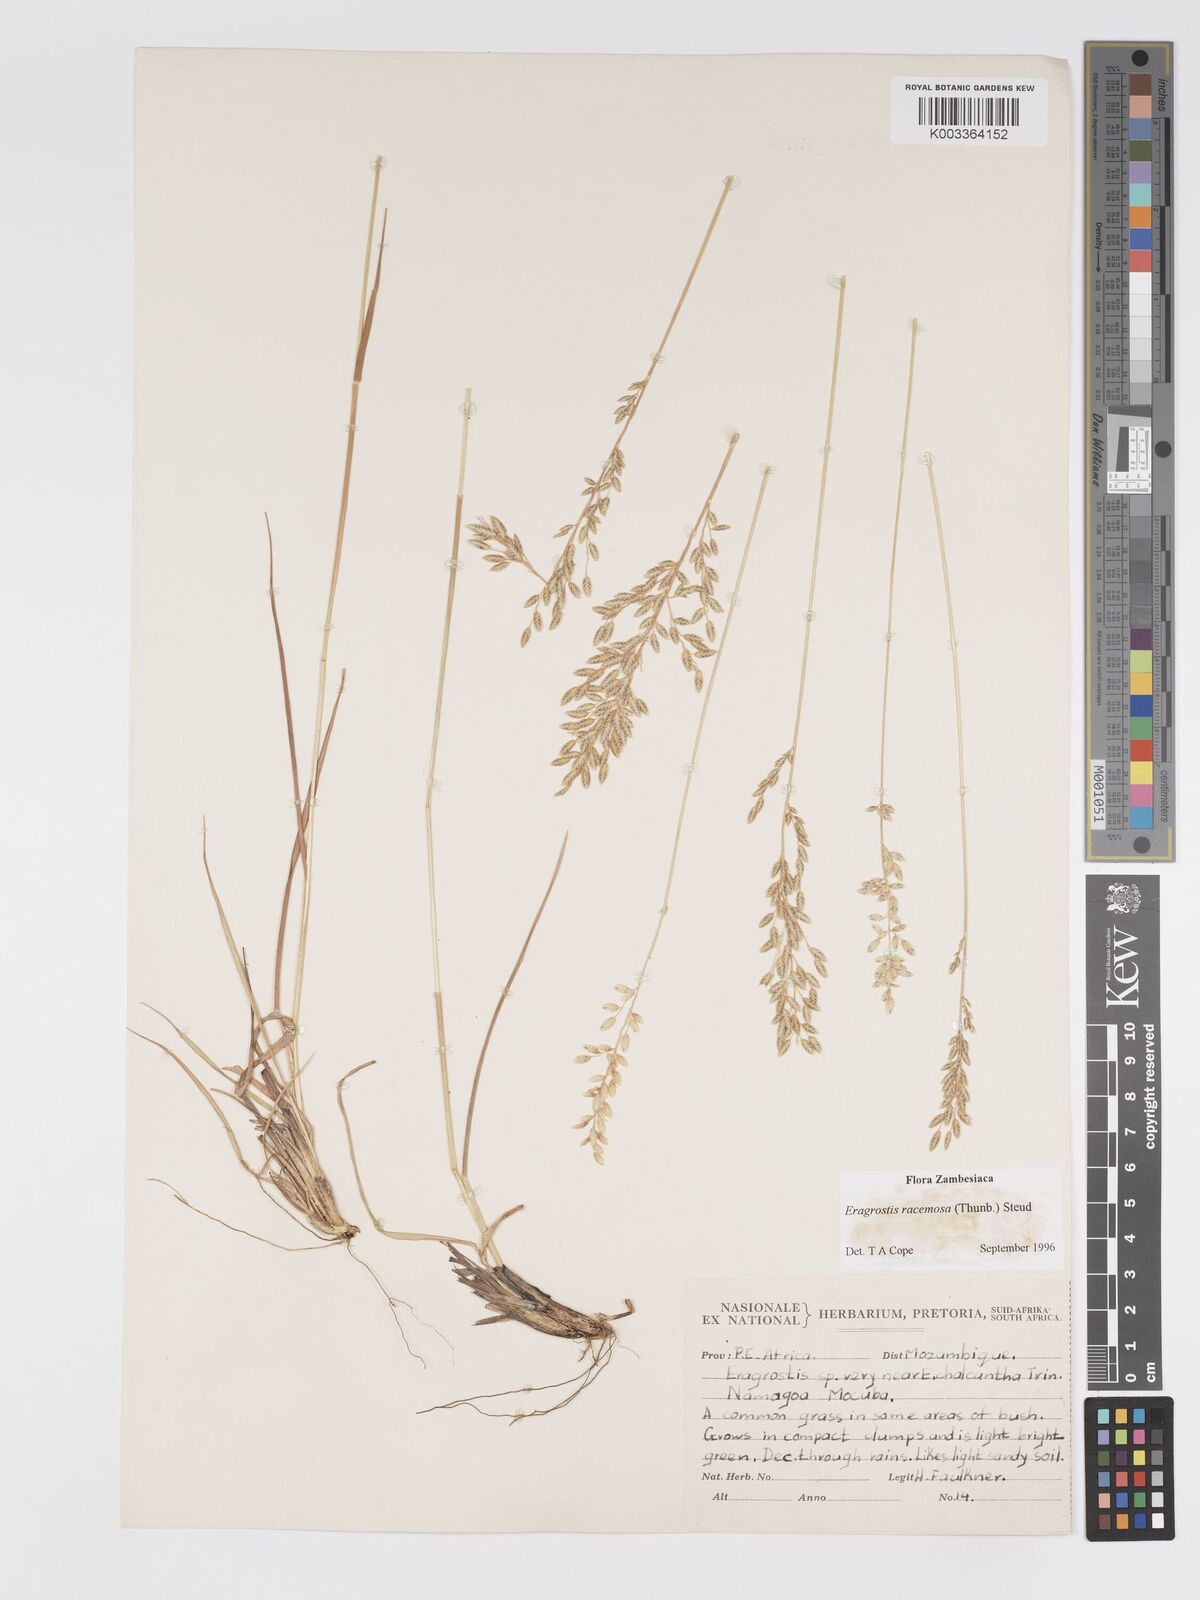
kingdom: Plantae
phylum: Tracheophyta
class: Liliopsida
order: Poales
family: Poaceae
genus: Eragrostis
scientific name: Eragrostis racemosa
